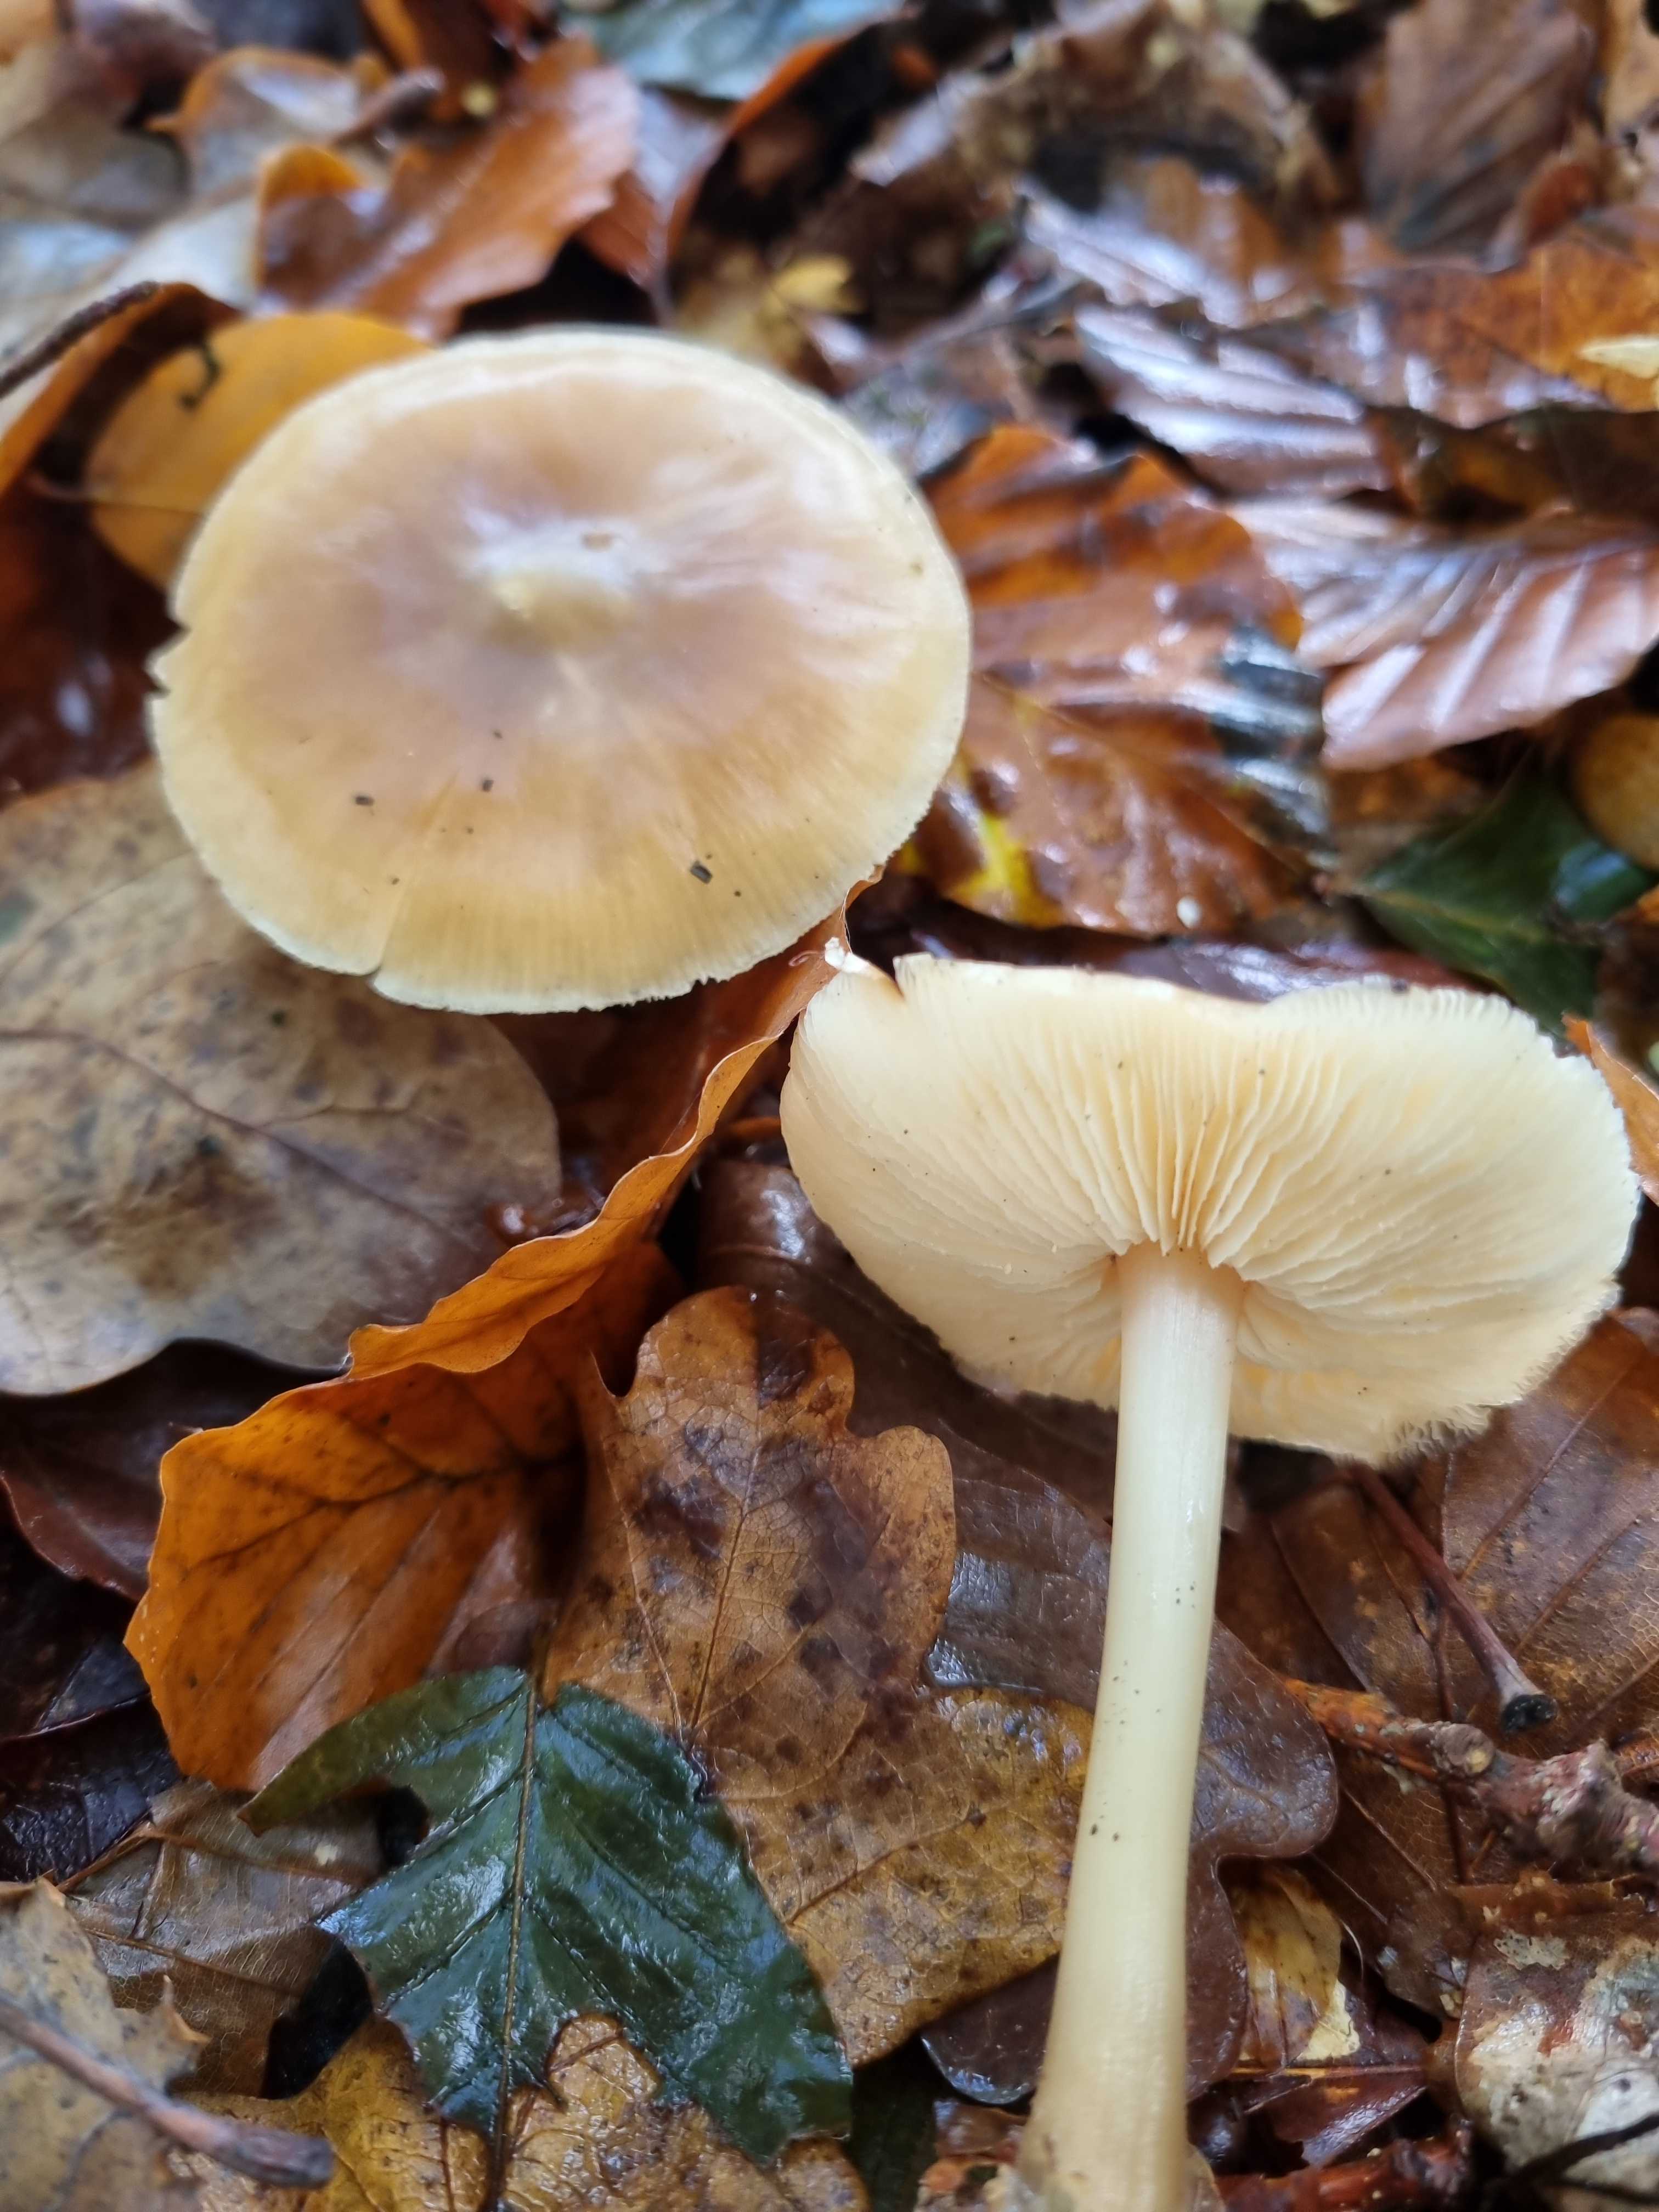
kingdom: Fungi
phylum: Basidiomycota
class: Agaricomycetes
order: Agaricales
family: Omphalotaceae
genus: Rhodocollybia
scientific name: Rhodocollybia asema
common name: horngrå fladhat
